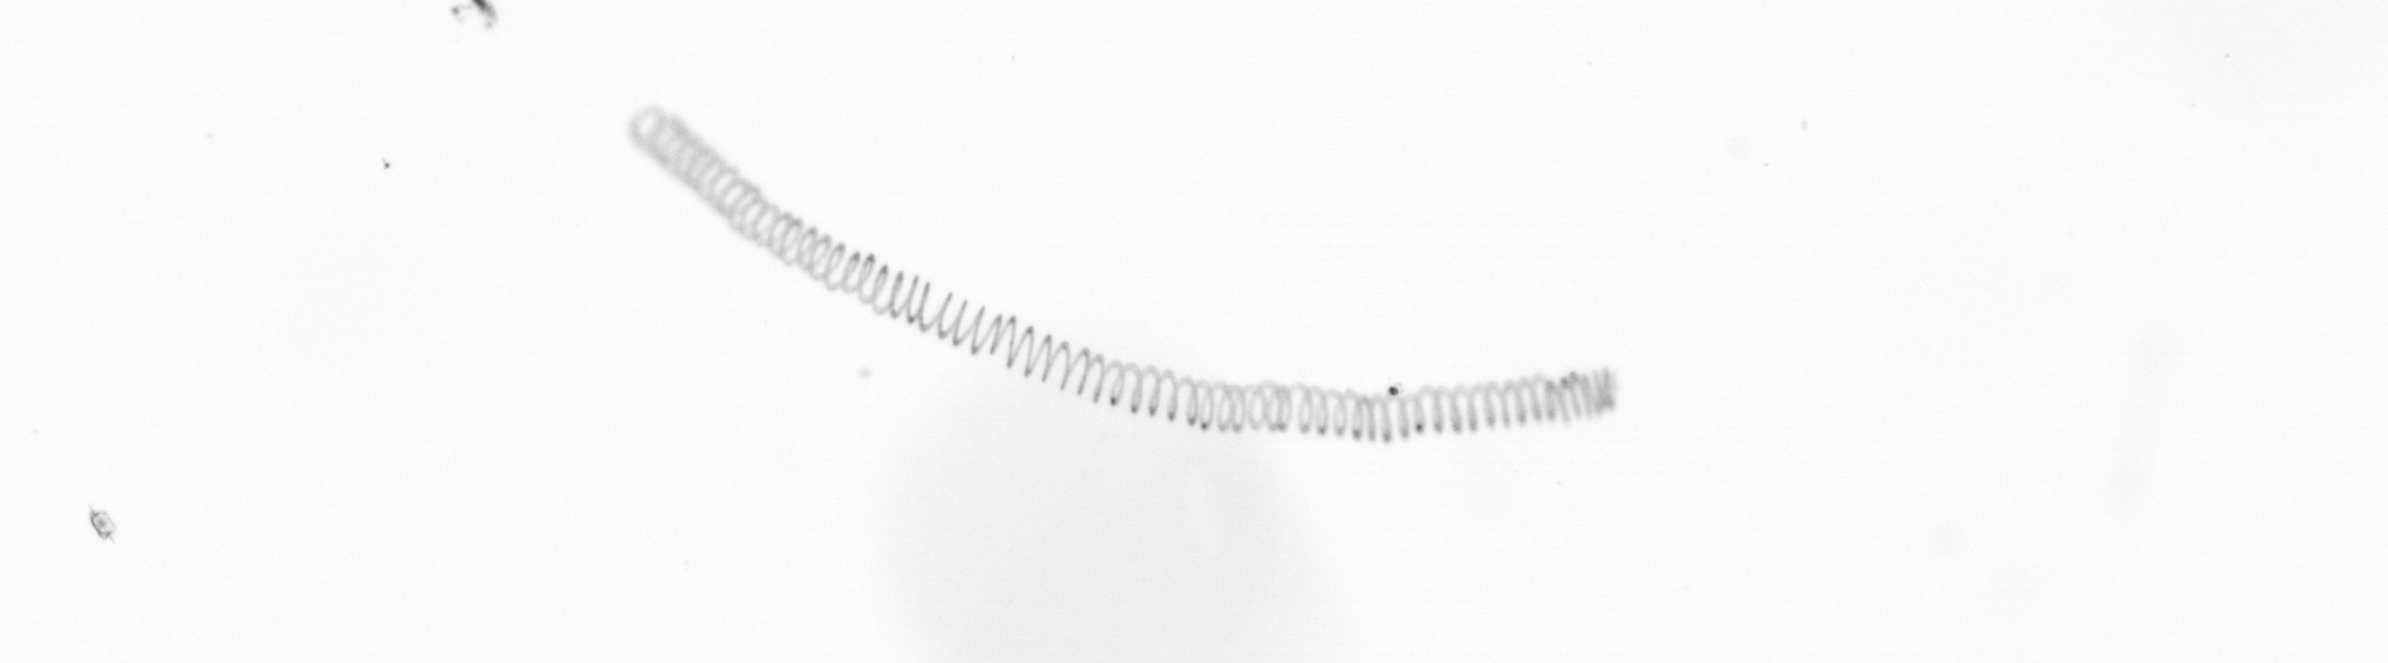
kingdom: Chromista
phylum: Ochrophyta
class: Bacillariophyceae
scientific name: Bacillariophyceae
